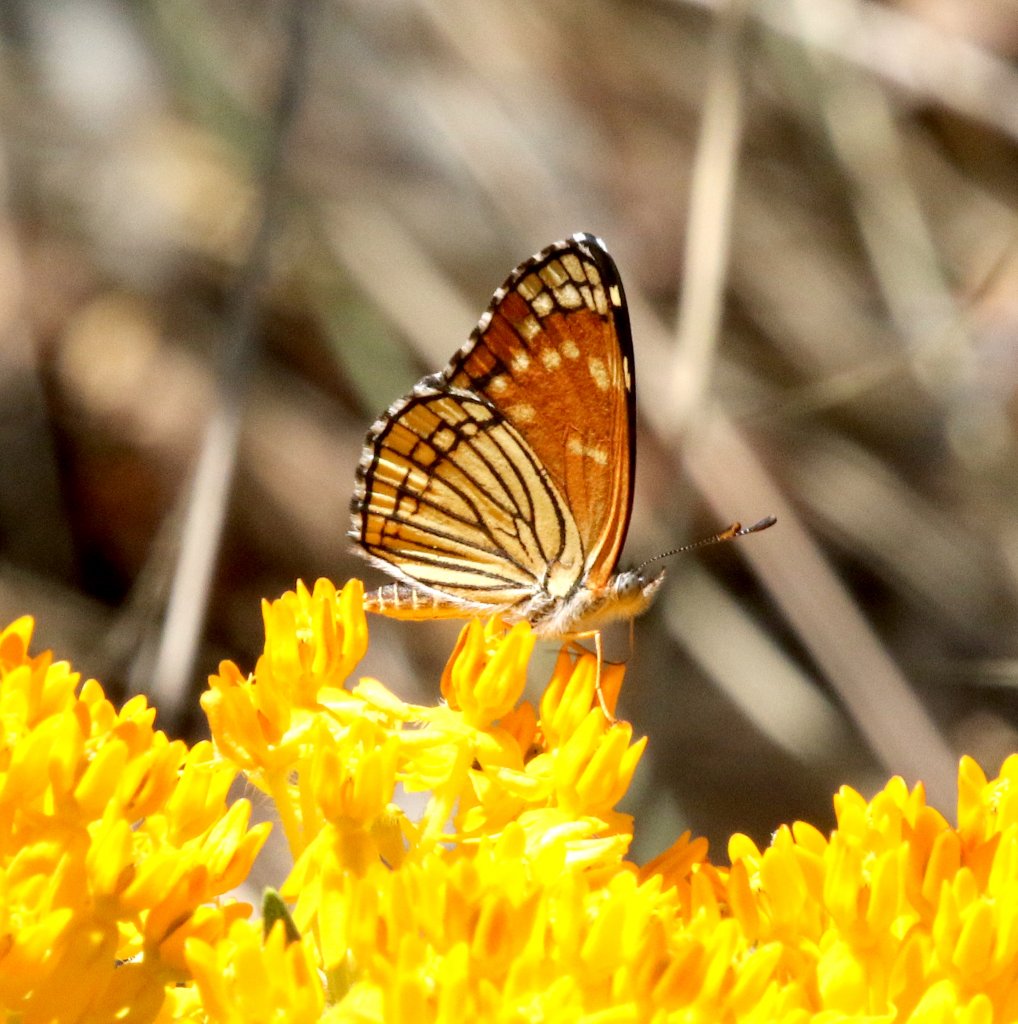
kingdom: Animalia
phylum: Arthropoda
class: Insecta
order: Lepidoptera
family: Nymphalidae
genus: Thessalia
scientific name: Thessalia leanira
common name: Black Checkerspot
